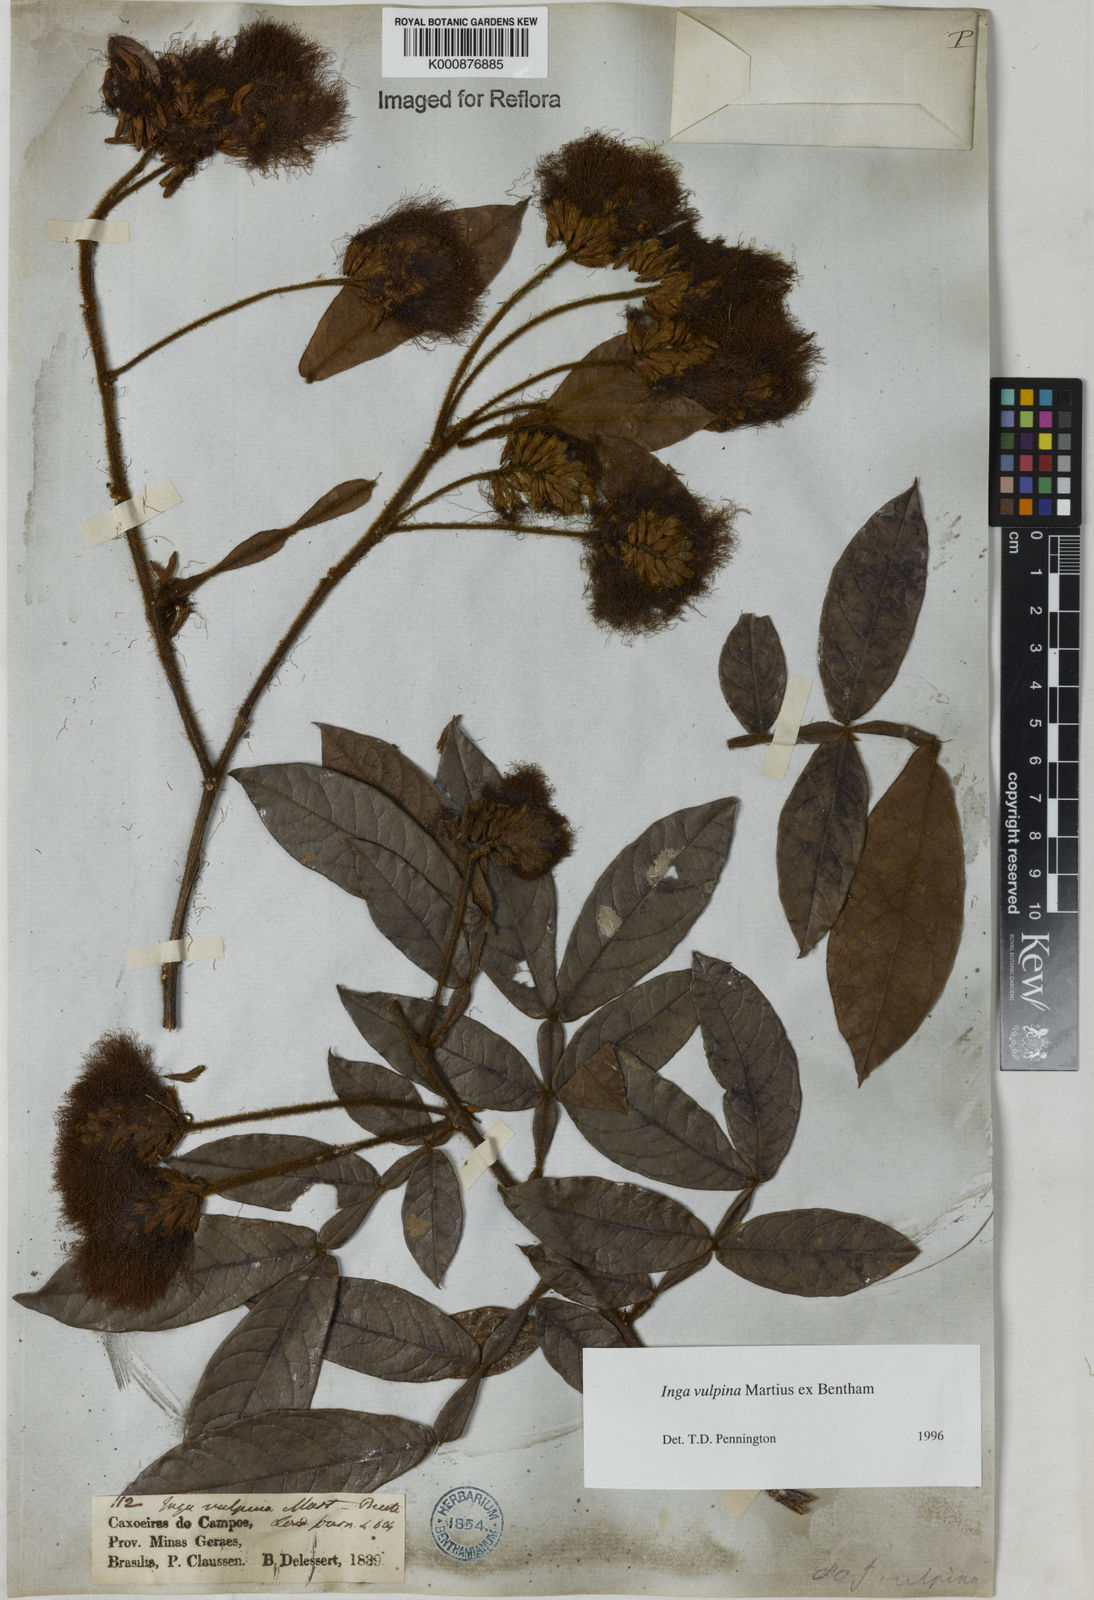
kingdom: Plantae
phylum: Tracheophyta
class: Magnoliopsida
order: Fabales
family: Fabaceae
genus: Inga
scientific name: Inga vulpina
